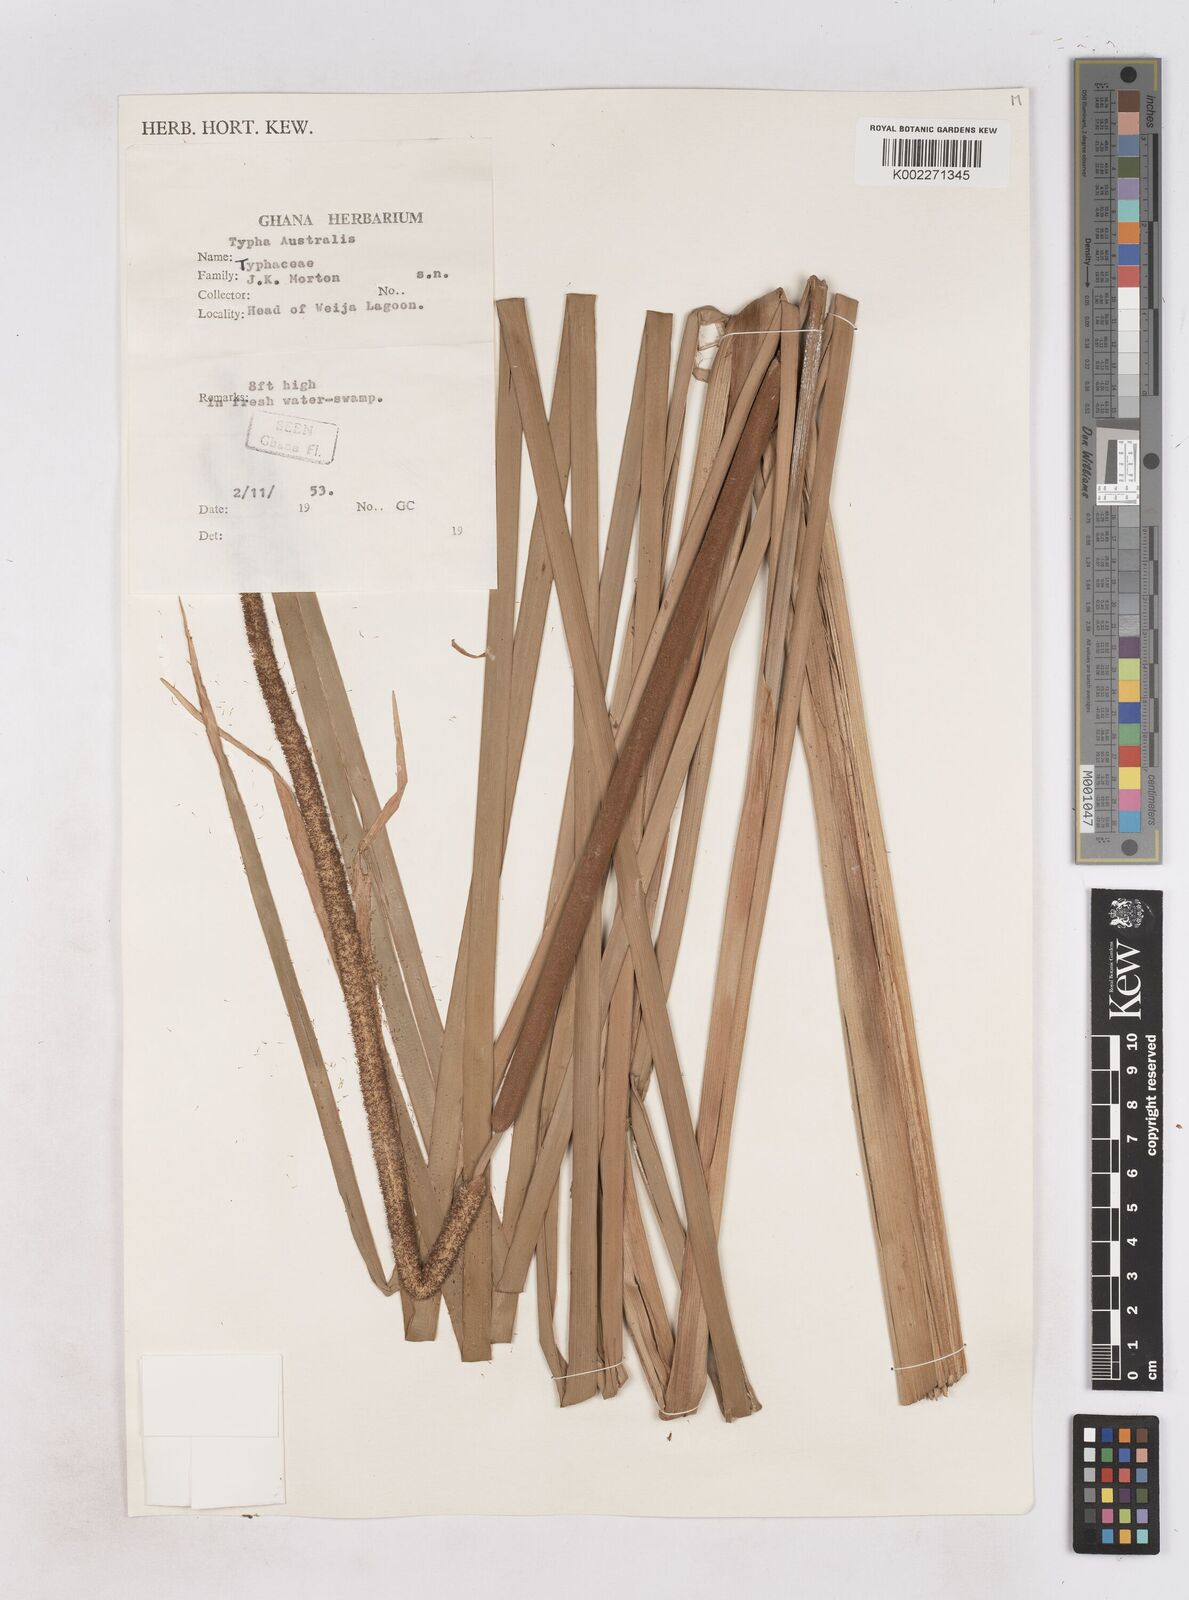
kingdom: Plantae
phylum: Tracheophyta
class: Liliopsida
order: Poales
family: Typhaceae
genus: Typha
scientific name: Typha domingensis
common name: Southern cattail
